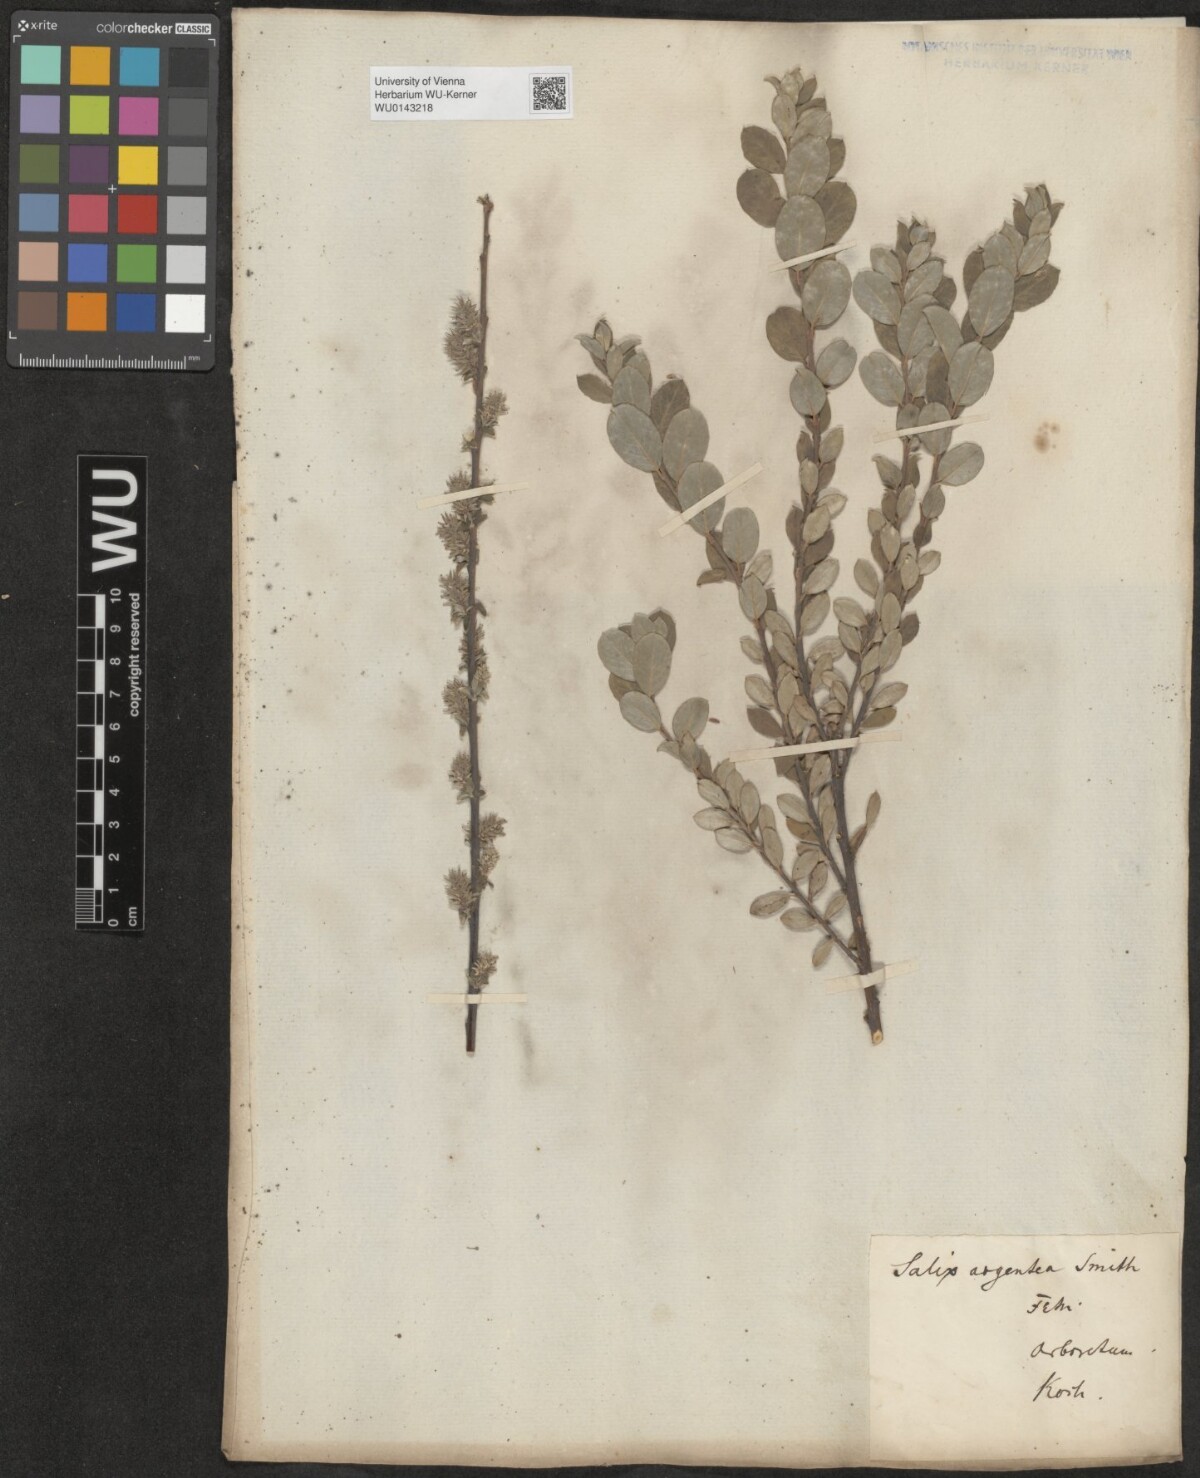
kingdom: Plantae
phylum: Tracheophyta
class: Magnoliopsida
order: Malpighiales
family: Salicaceae
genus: Salix
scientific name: Salix repens
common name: Creeping willow
